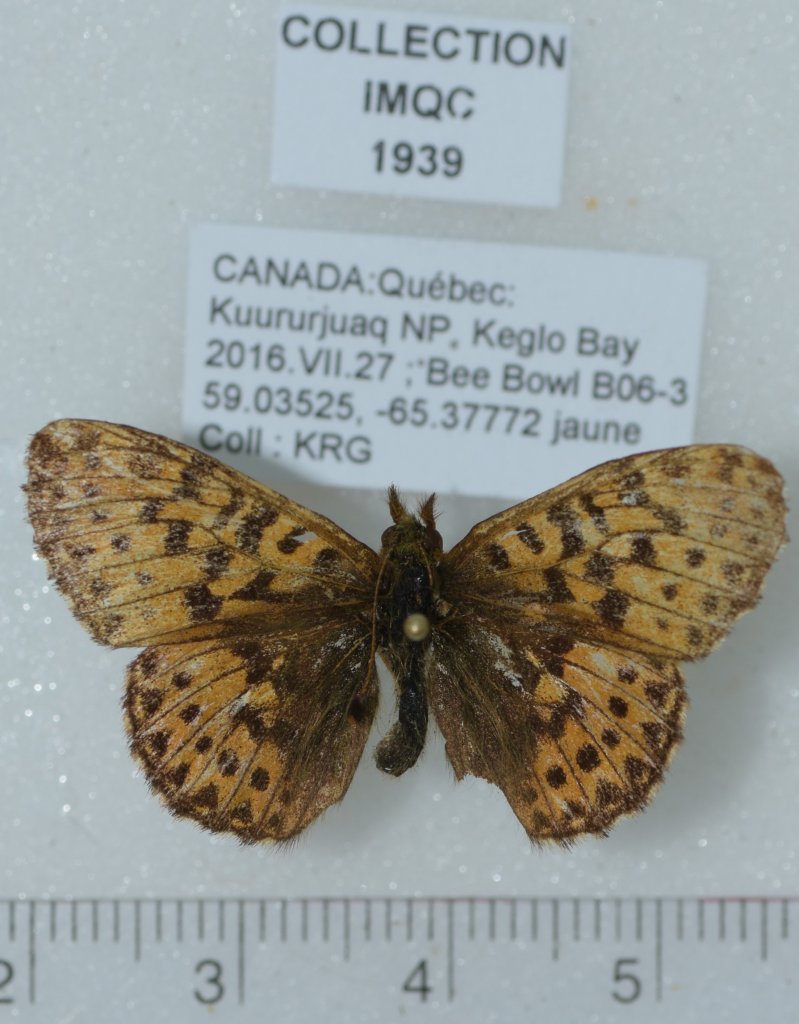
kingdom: Animalia
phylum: Arthropoda
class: Insecta
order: Lepidoptera
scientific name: Lepidoptera
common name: Butterflies
